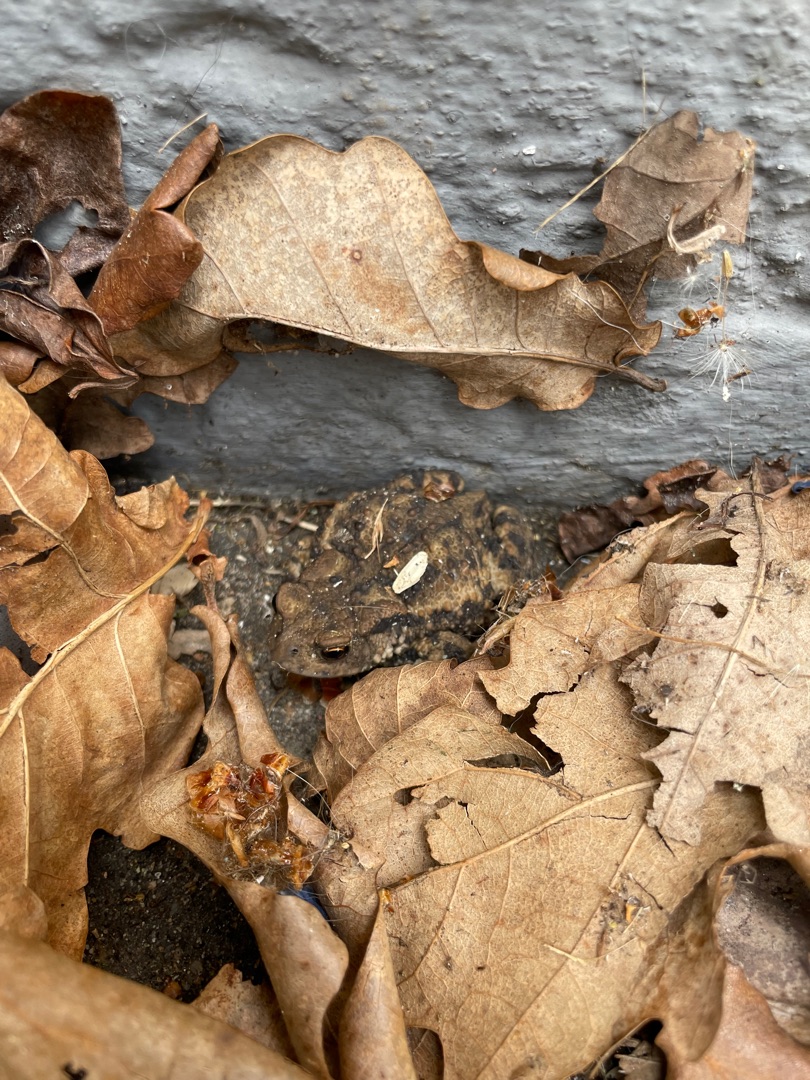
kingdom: Animalia
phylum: Chordata
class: Amphibia
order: Anura
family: Bufonidae
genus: Bufo
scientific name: Bufo bufo
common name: Skrubtudse
